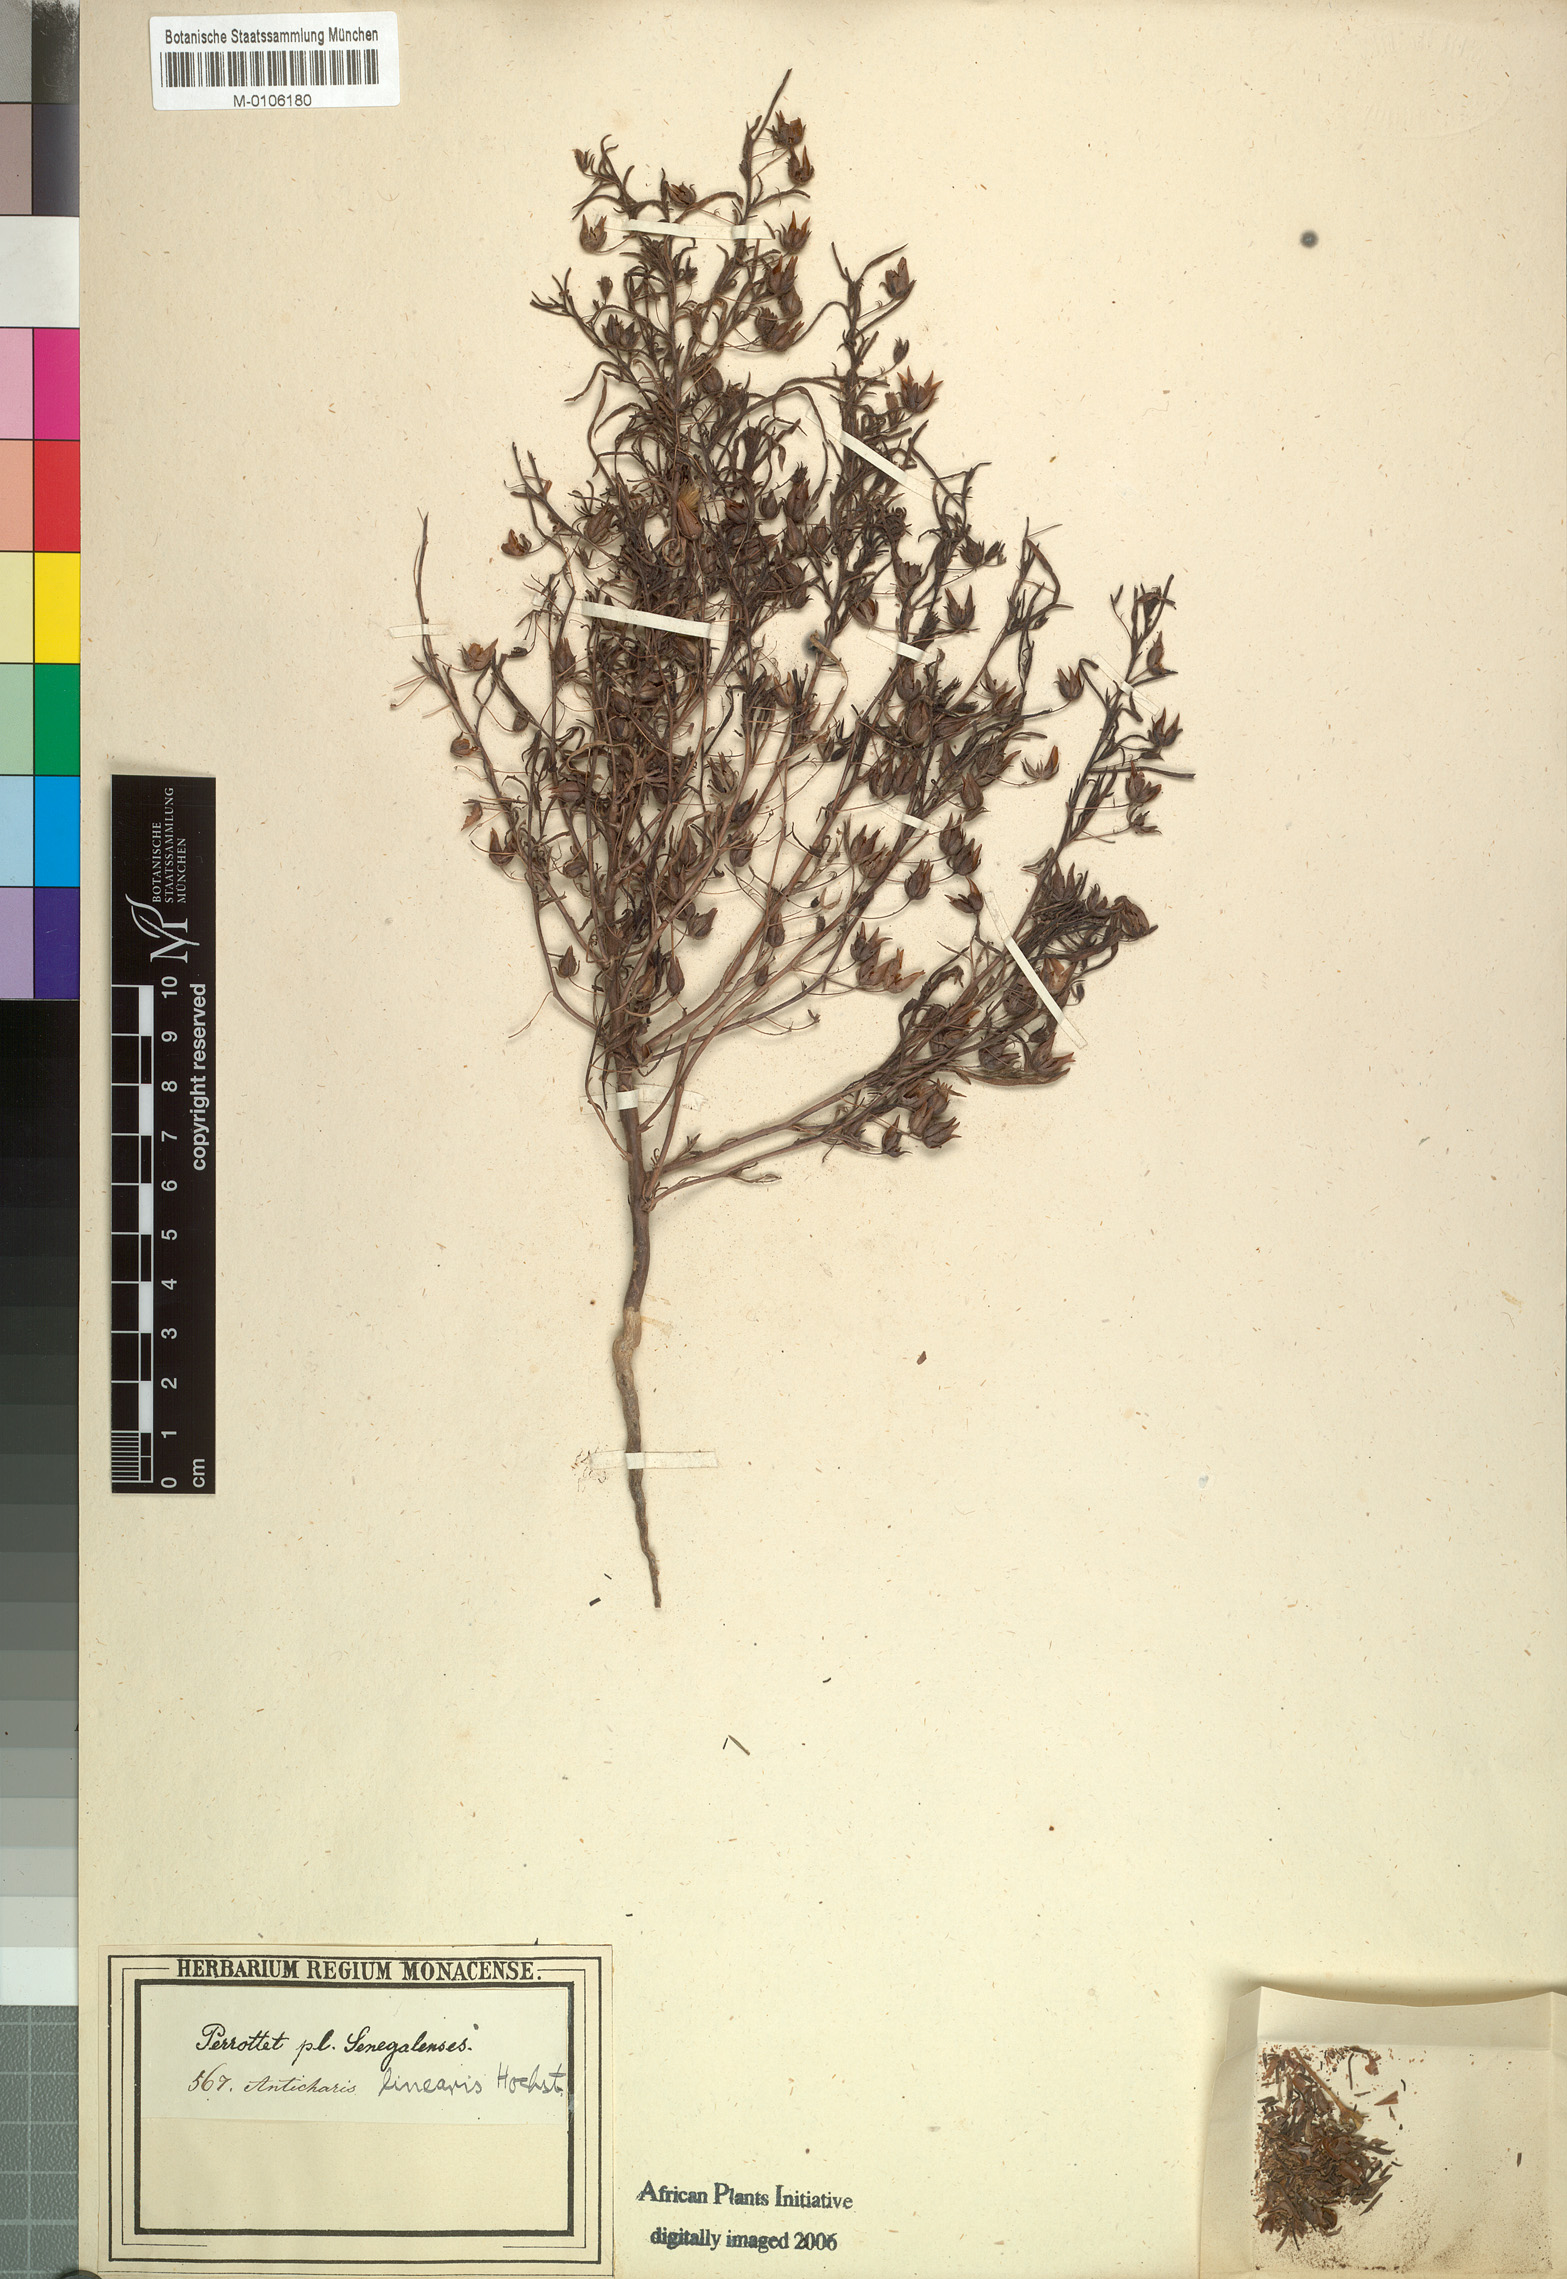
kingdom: Plantae
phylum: Tracheophyta
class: Magnoliopsida
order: Lamiales
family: Scrophulariaceae
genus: Anticharis
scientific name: Anticharis senegalensis
